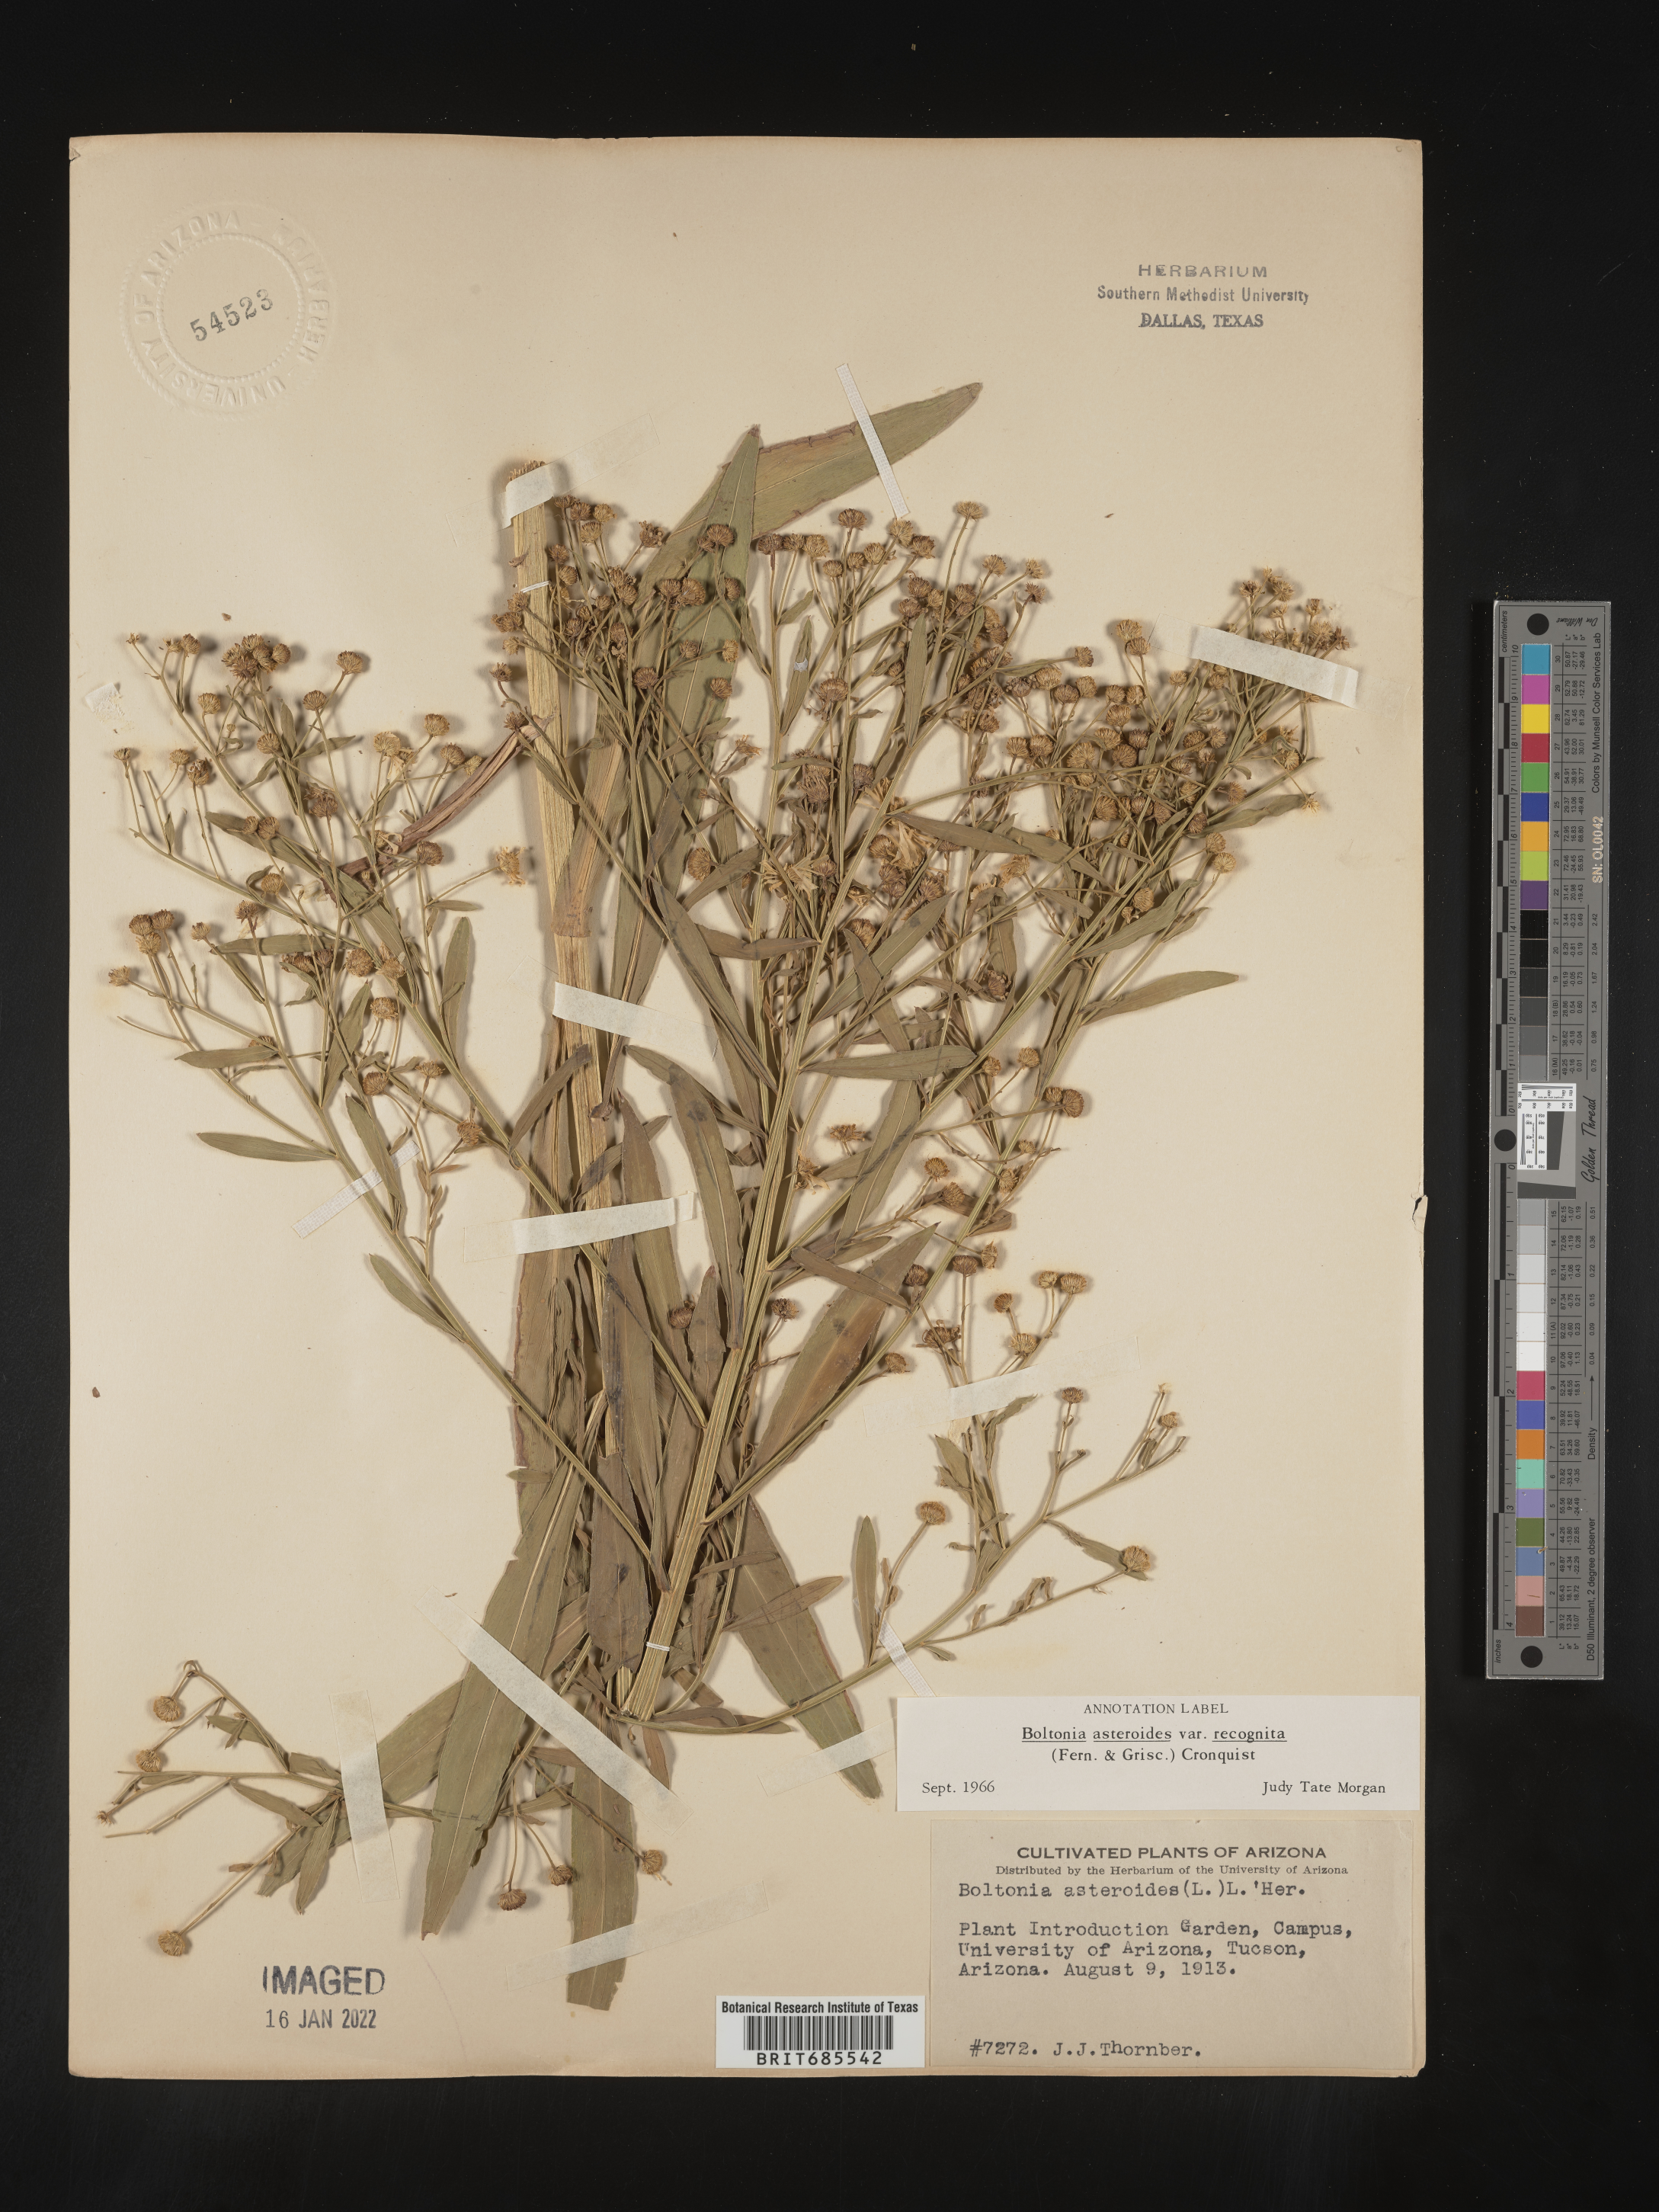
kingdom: Plantae
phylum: Tracheophyta
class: Magnoliopsida
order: Asterales
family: Asteraceae
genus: Boltonia
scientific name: Boltonia
